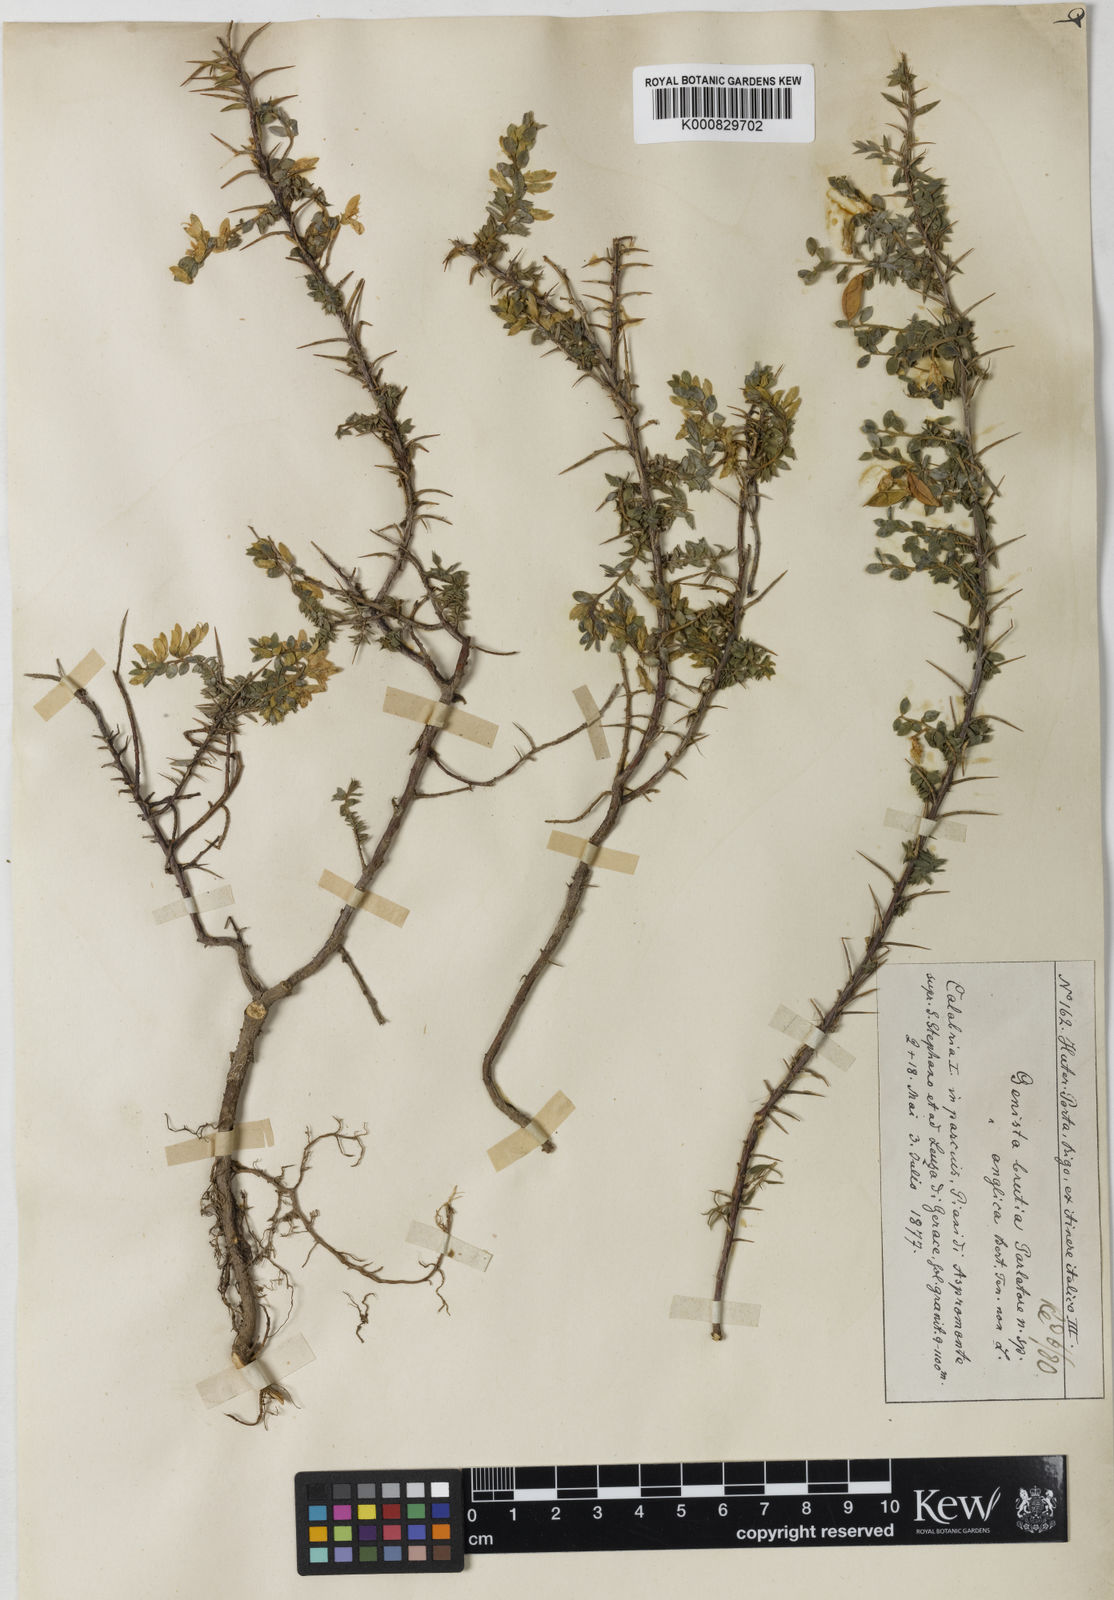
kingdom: Plantae
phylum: Tracheophyta
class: Magnoliopsida
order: Fabales
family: Fabaceae
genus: Genista
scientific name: Genista anglica
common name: Petty whin
